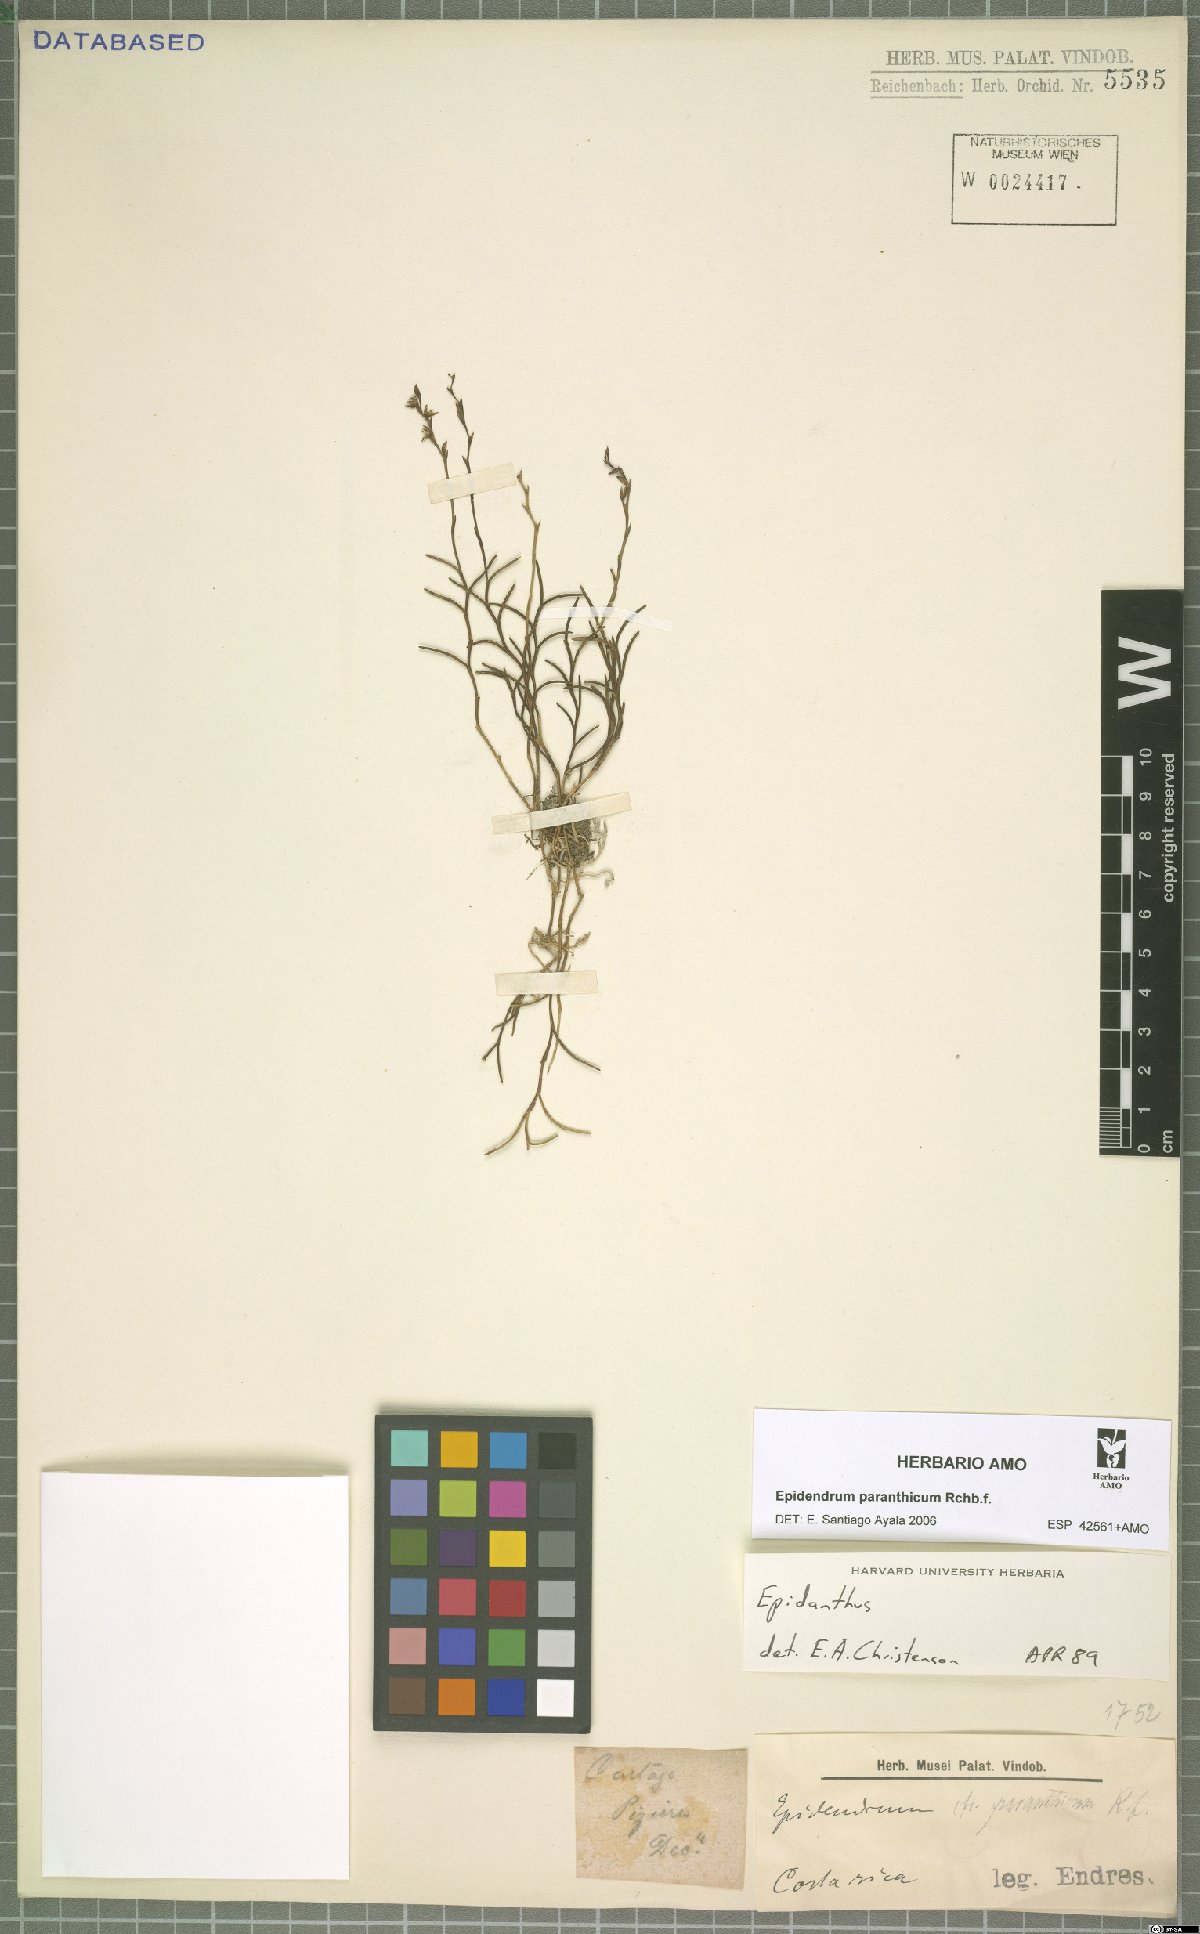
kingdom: Plantae
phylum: Tracheophyta
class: Liliopsida
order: Asparagales
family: Orchidaceae
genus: Epidendrum
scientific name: Epidendrum paranthicum
